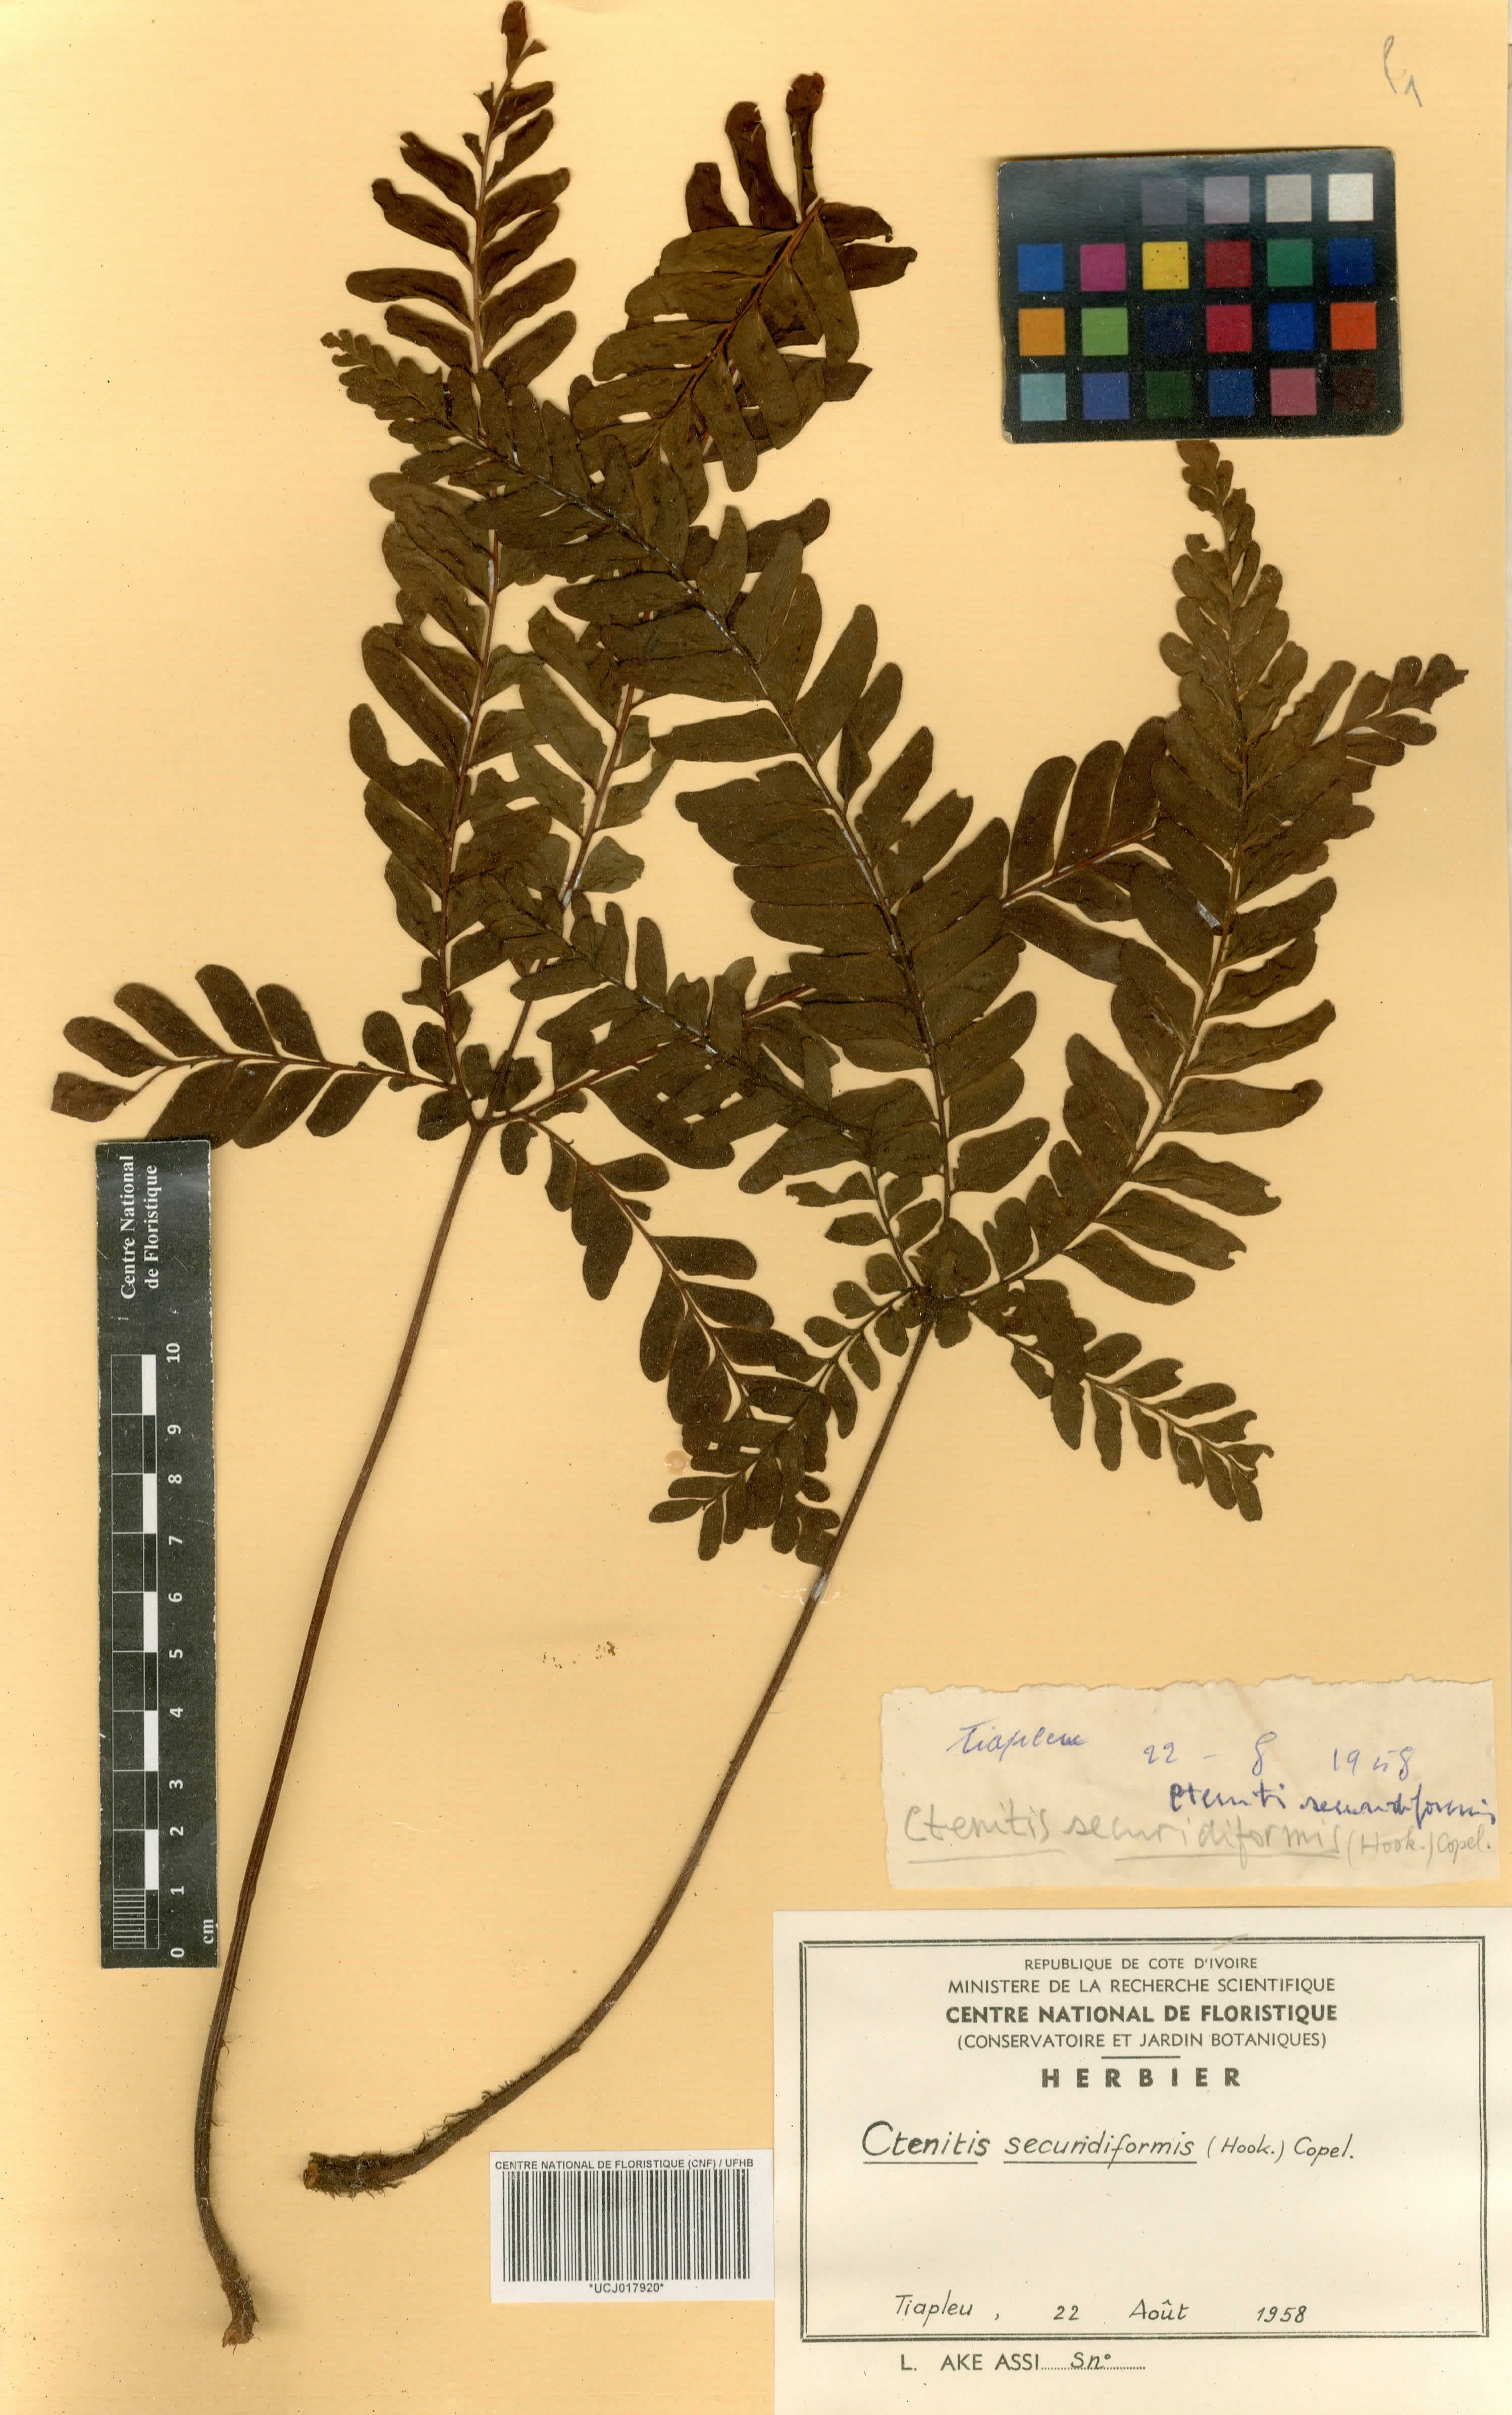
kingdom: Plantae
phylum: Tracheophyta
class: Polypodiopsida
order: Polypodiales
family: Tectariaceae
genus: Triplophyllum
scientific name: Triplophyllum securidiforme
